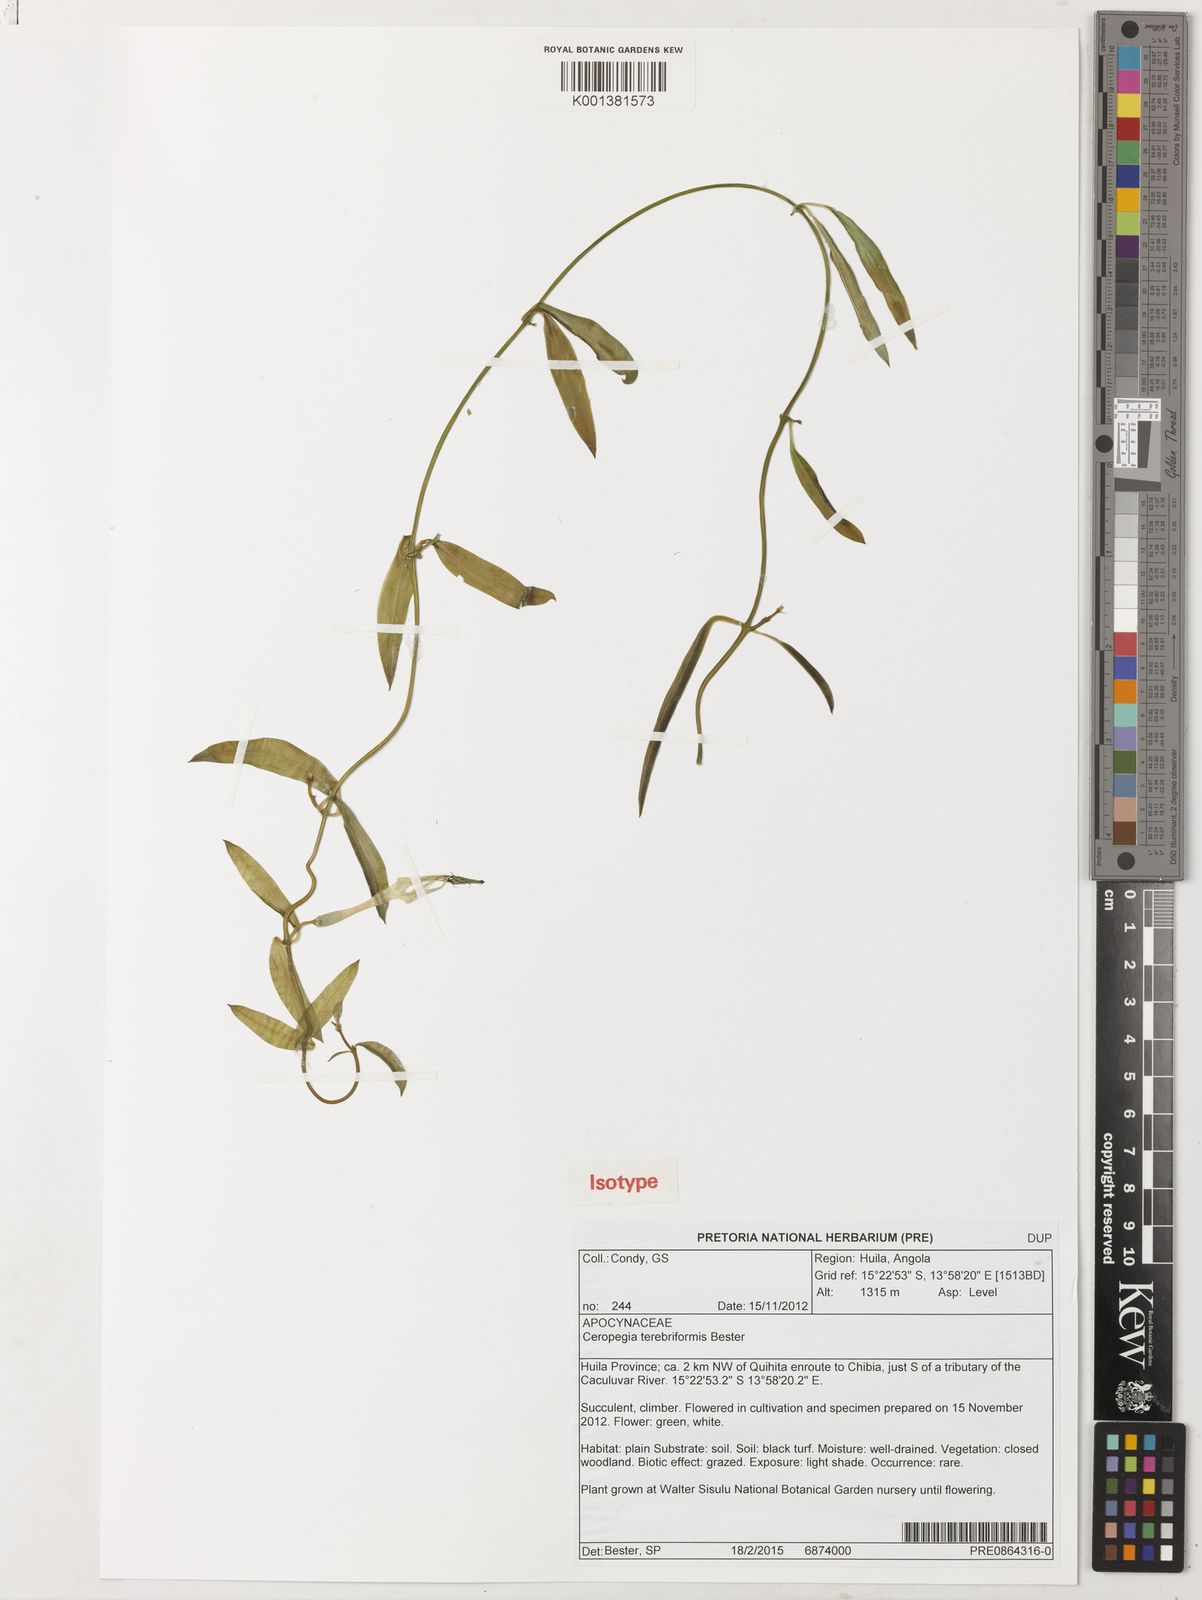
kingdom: Plantae
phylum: Tracheophyta
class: Magnoliopsida
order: Gentianales
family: Apocynaceae
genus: Ceropegia
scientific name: Ceropegia terebriformis
